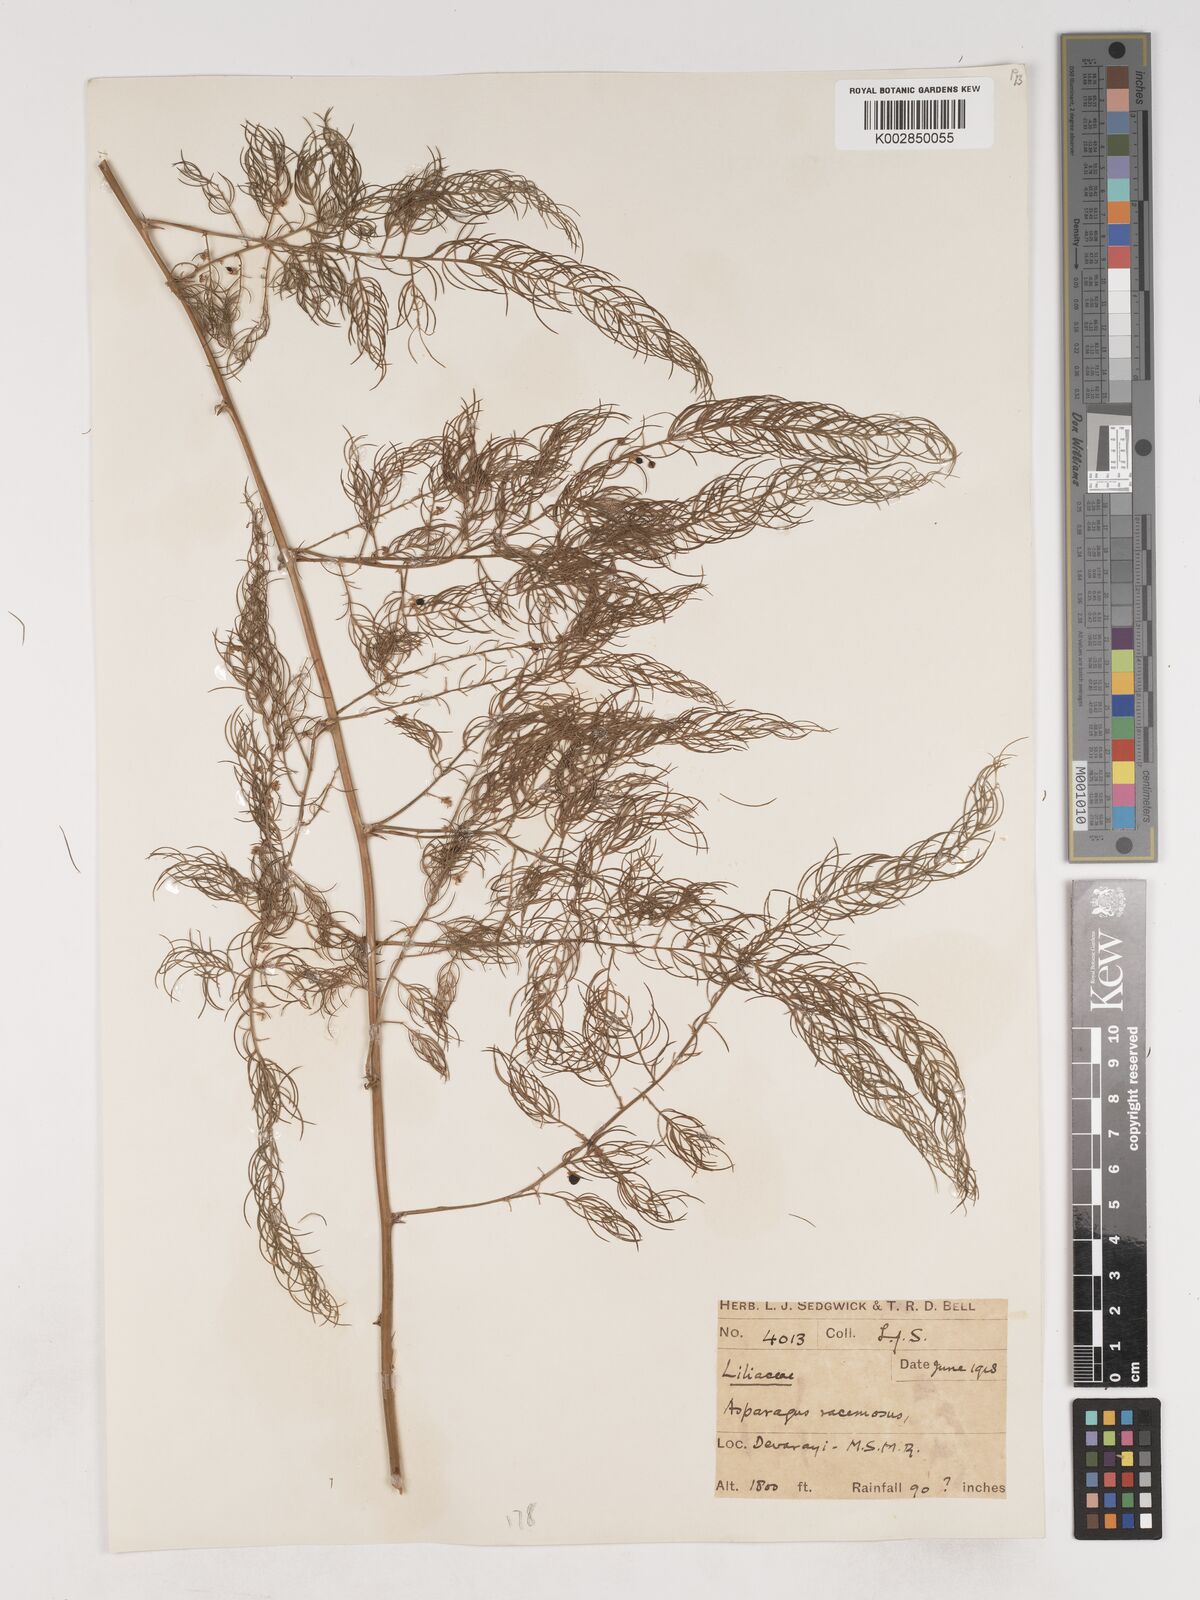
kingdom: Plantae
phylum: Tracheophyta
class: Liliopsida
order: Asparagales
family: Asparagaceae
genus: Asparagus
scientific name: Asparagus racemosus
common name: Asparagus-fern
